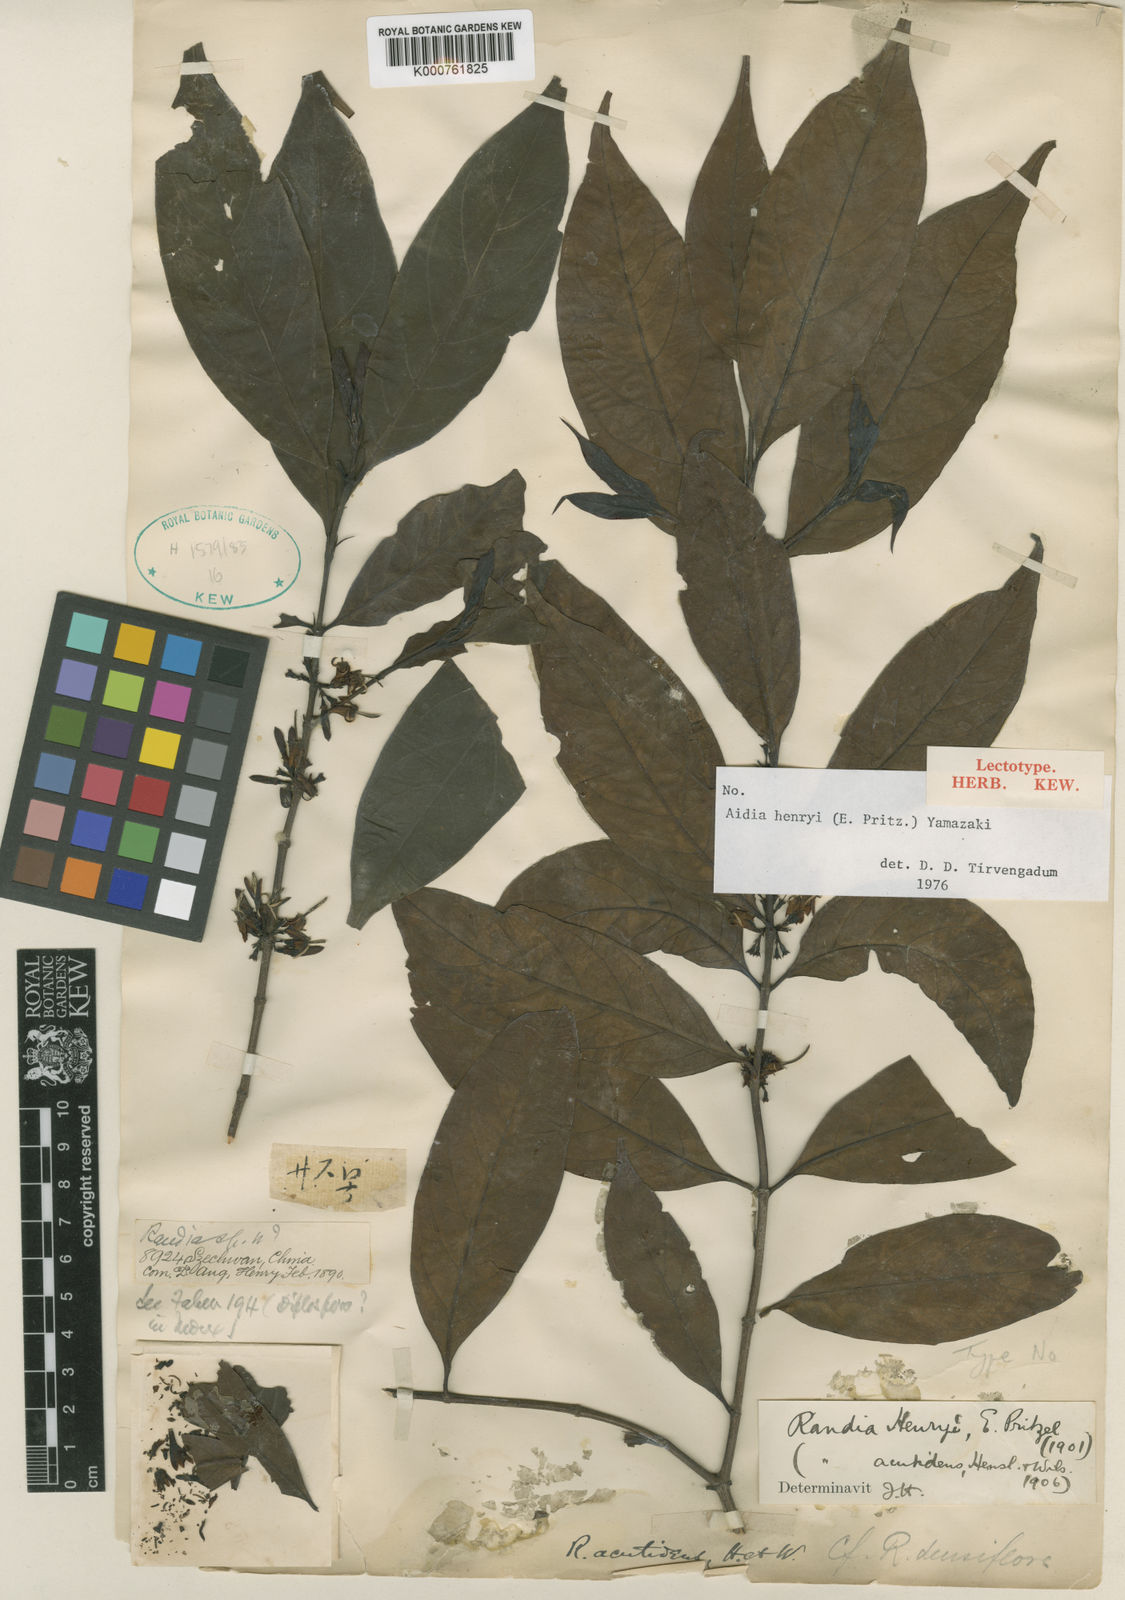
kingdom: Plantae
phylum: Tracheophyta
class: Magnoliopsida
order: Gentianales
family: Rubiaceae
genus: Aidia
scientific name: Aidia henryi
